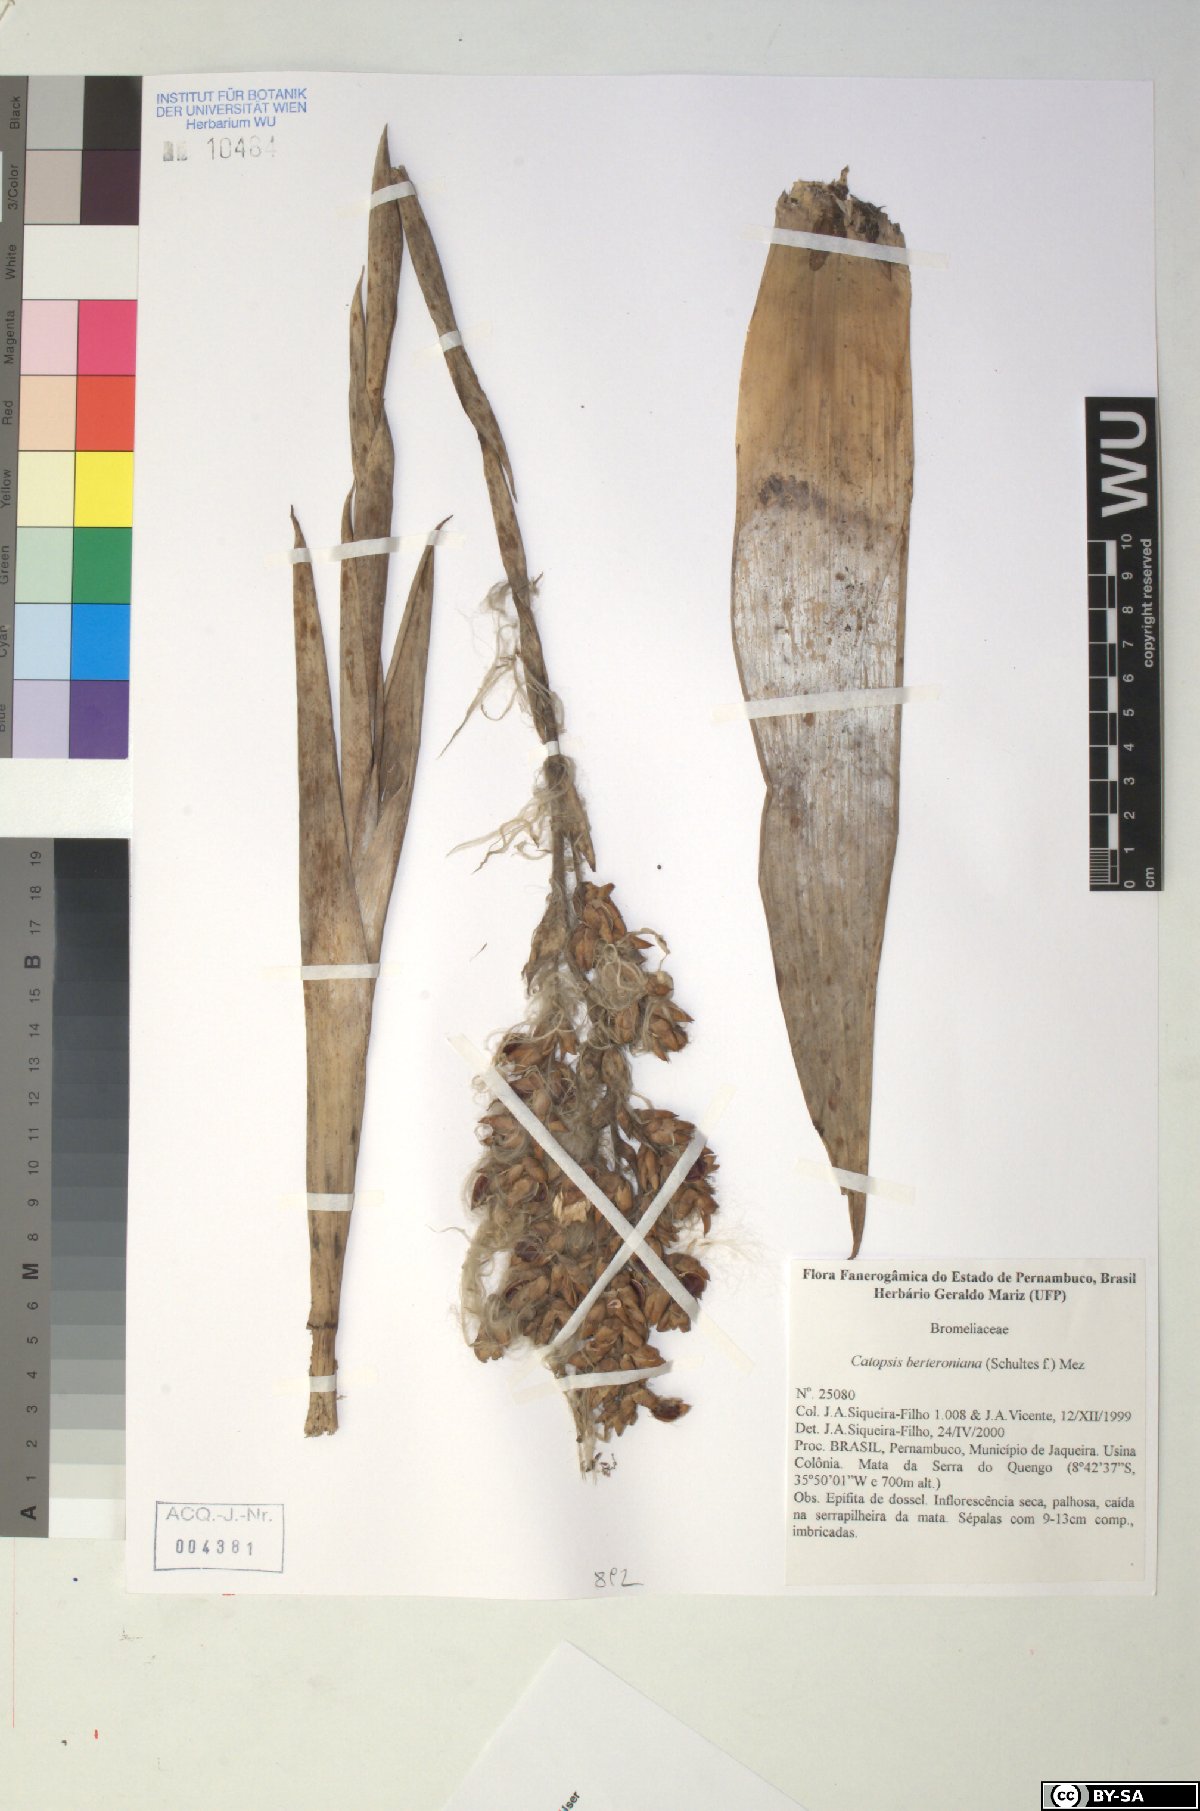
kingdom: Plantae
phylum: Tracheophyta
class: Liliopsida
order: Poales
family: Bromeliaceae
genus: Catopsis
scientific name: Catopsis berteroniana
